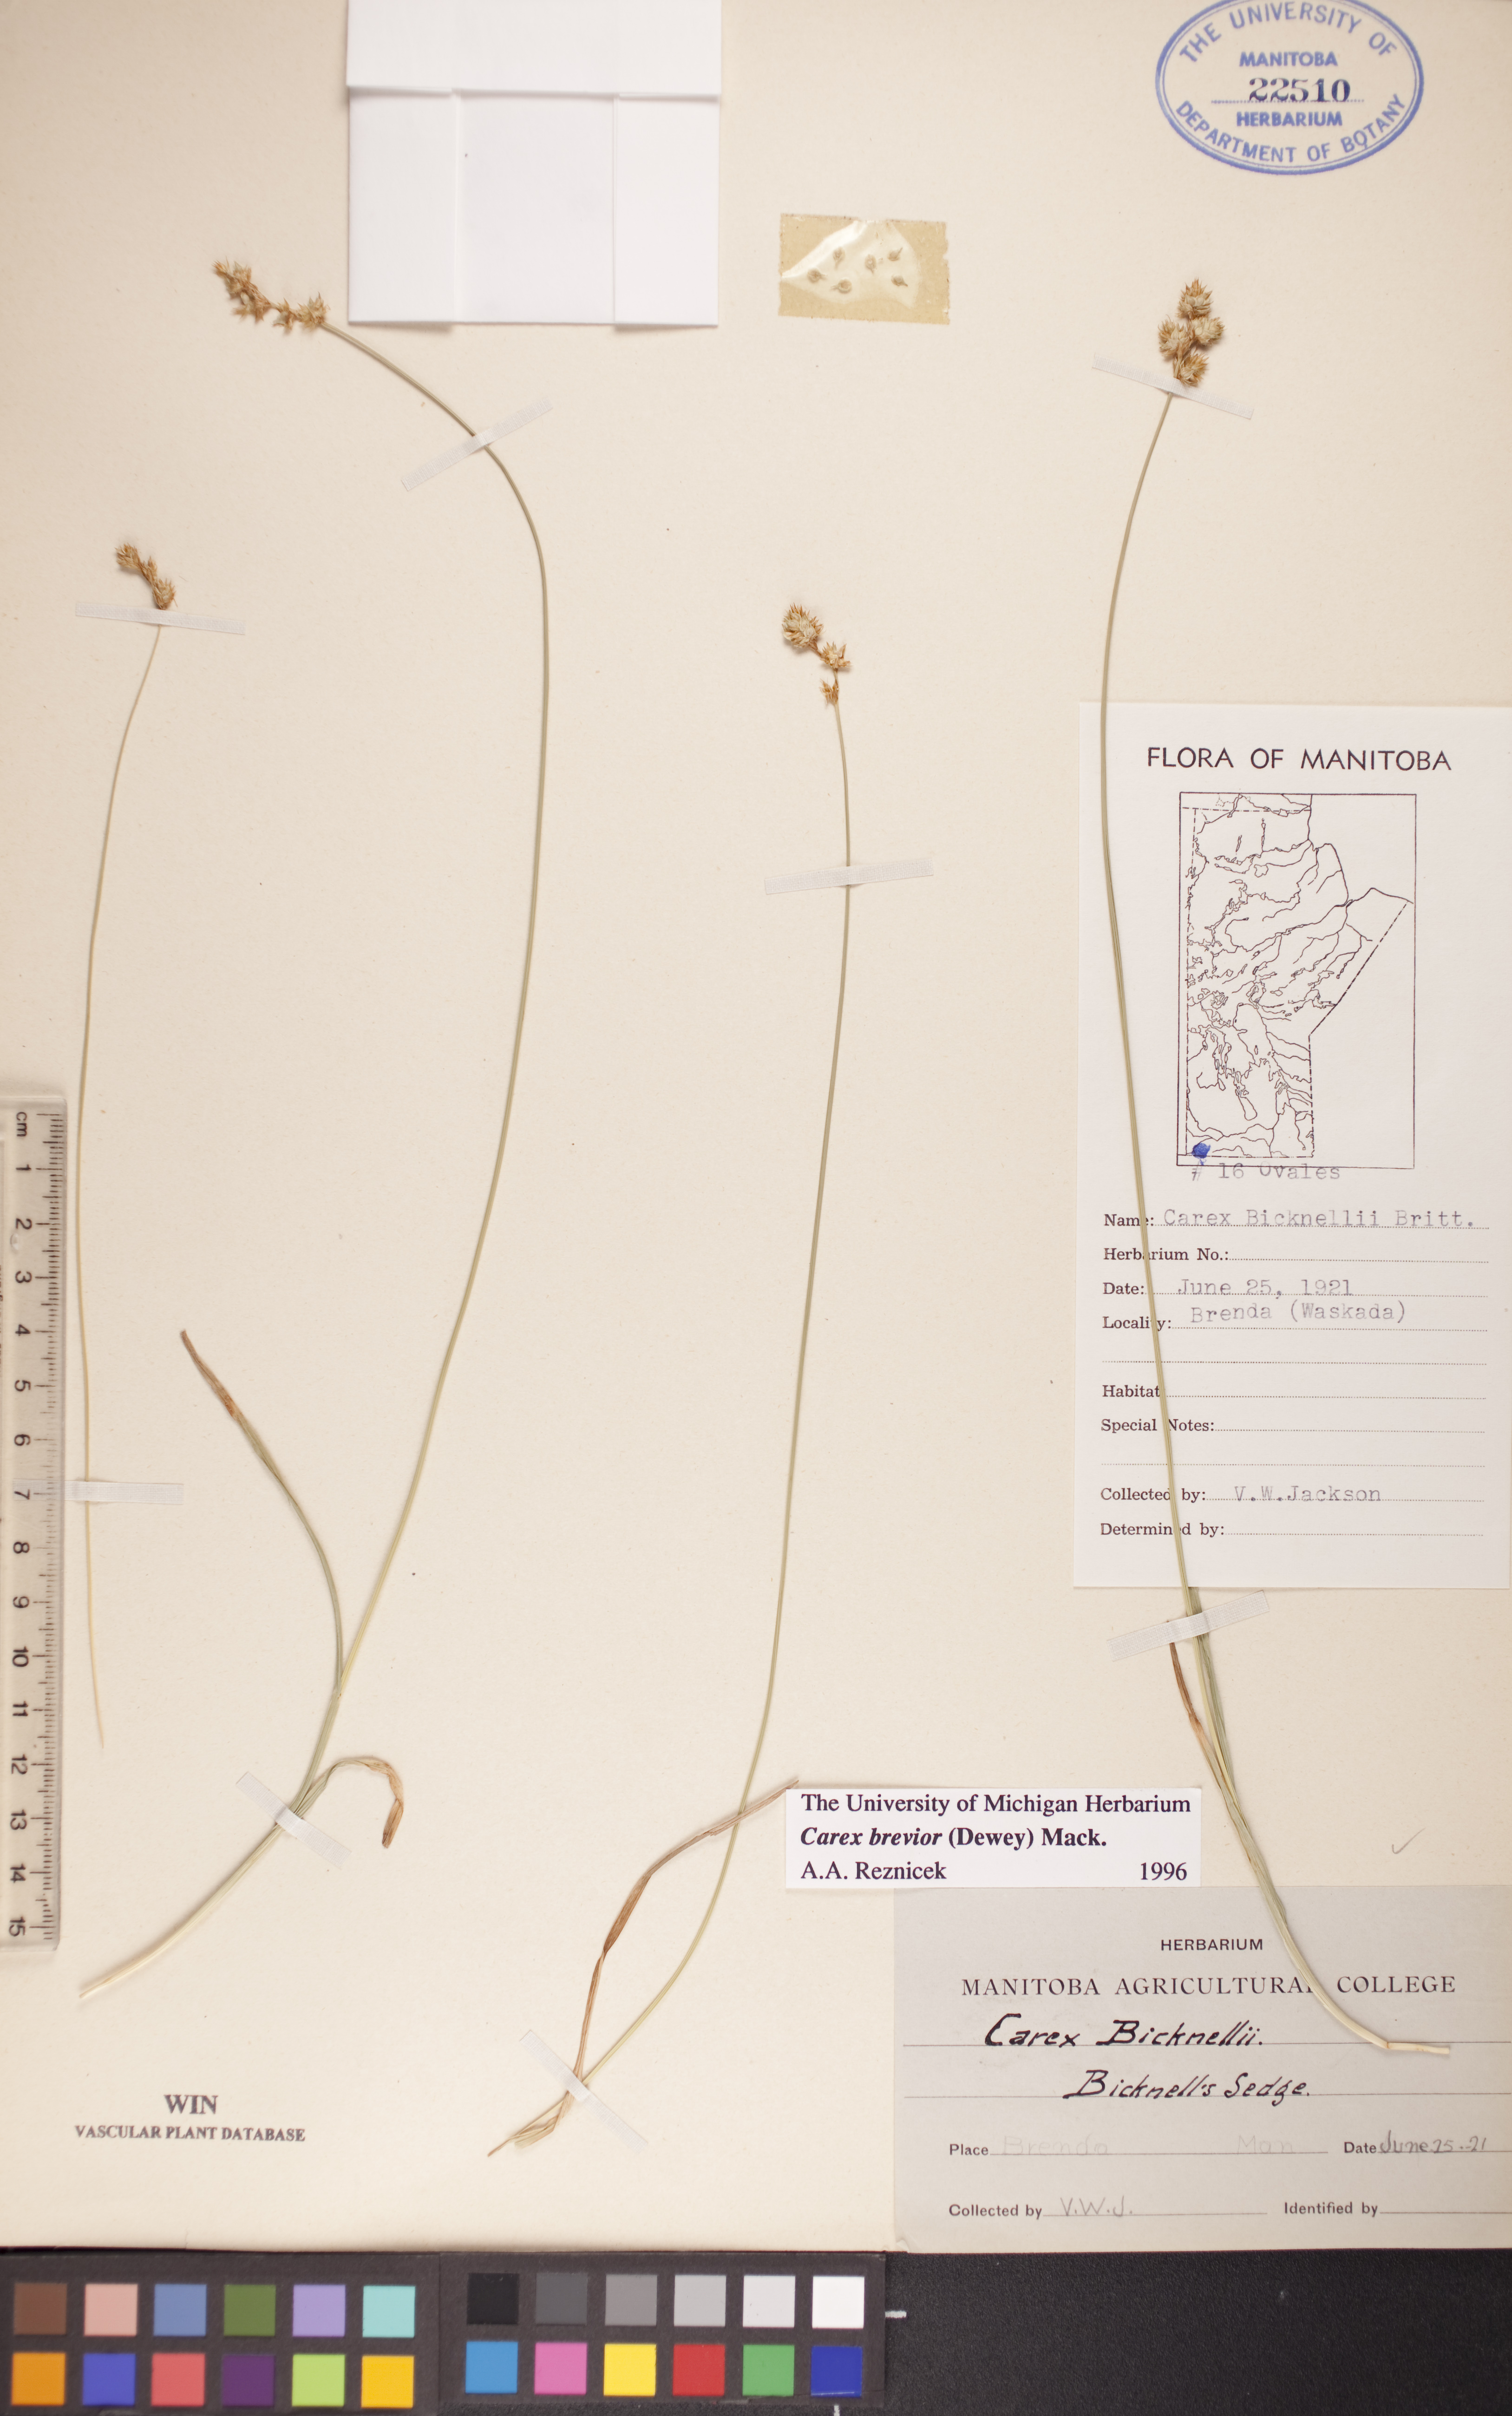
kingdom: Plantae
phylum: Tracheophyta
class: Liliopsida
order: Poales
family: Cyperaceae
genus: Carex
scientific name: Carex brevior
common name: Brevior sedge
